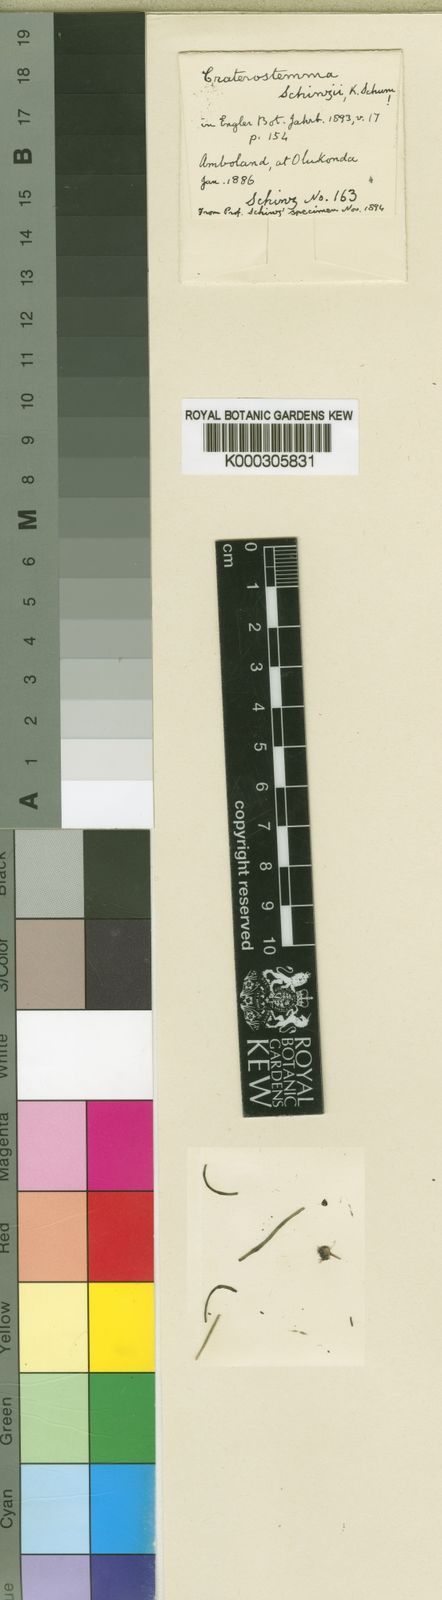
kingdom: Plantae
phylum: Tracheophyta
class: Magnoliopsida
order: Gentianales
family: Apocynaceae
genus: Ceropegia
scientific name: Ceropegia schinziata
